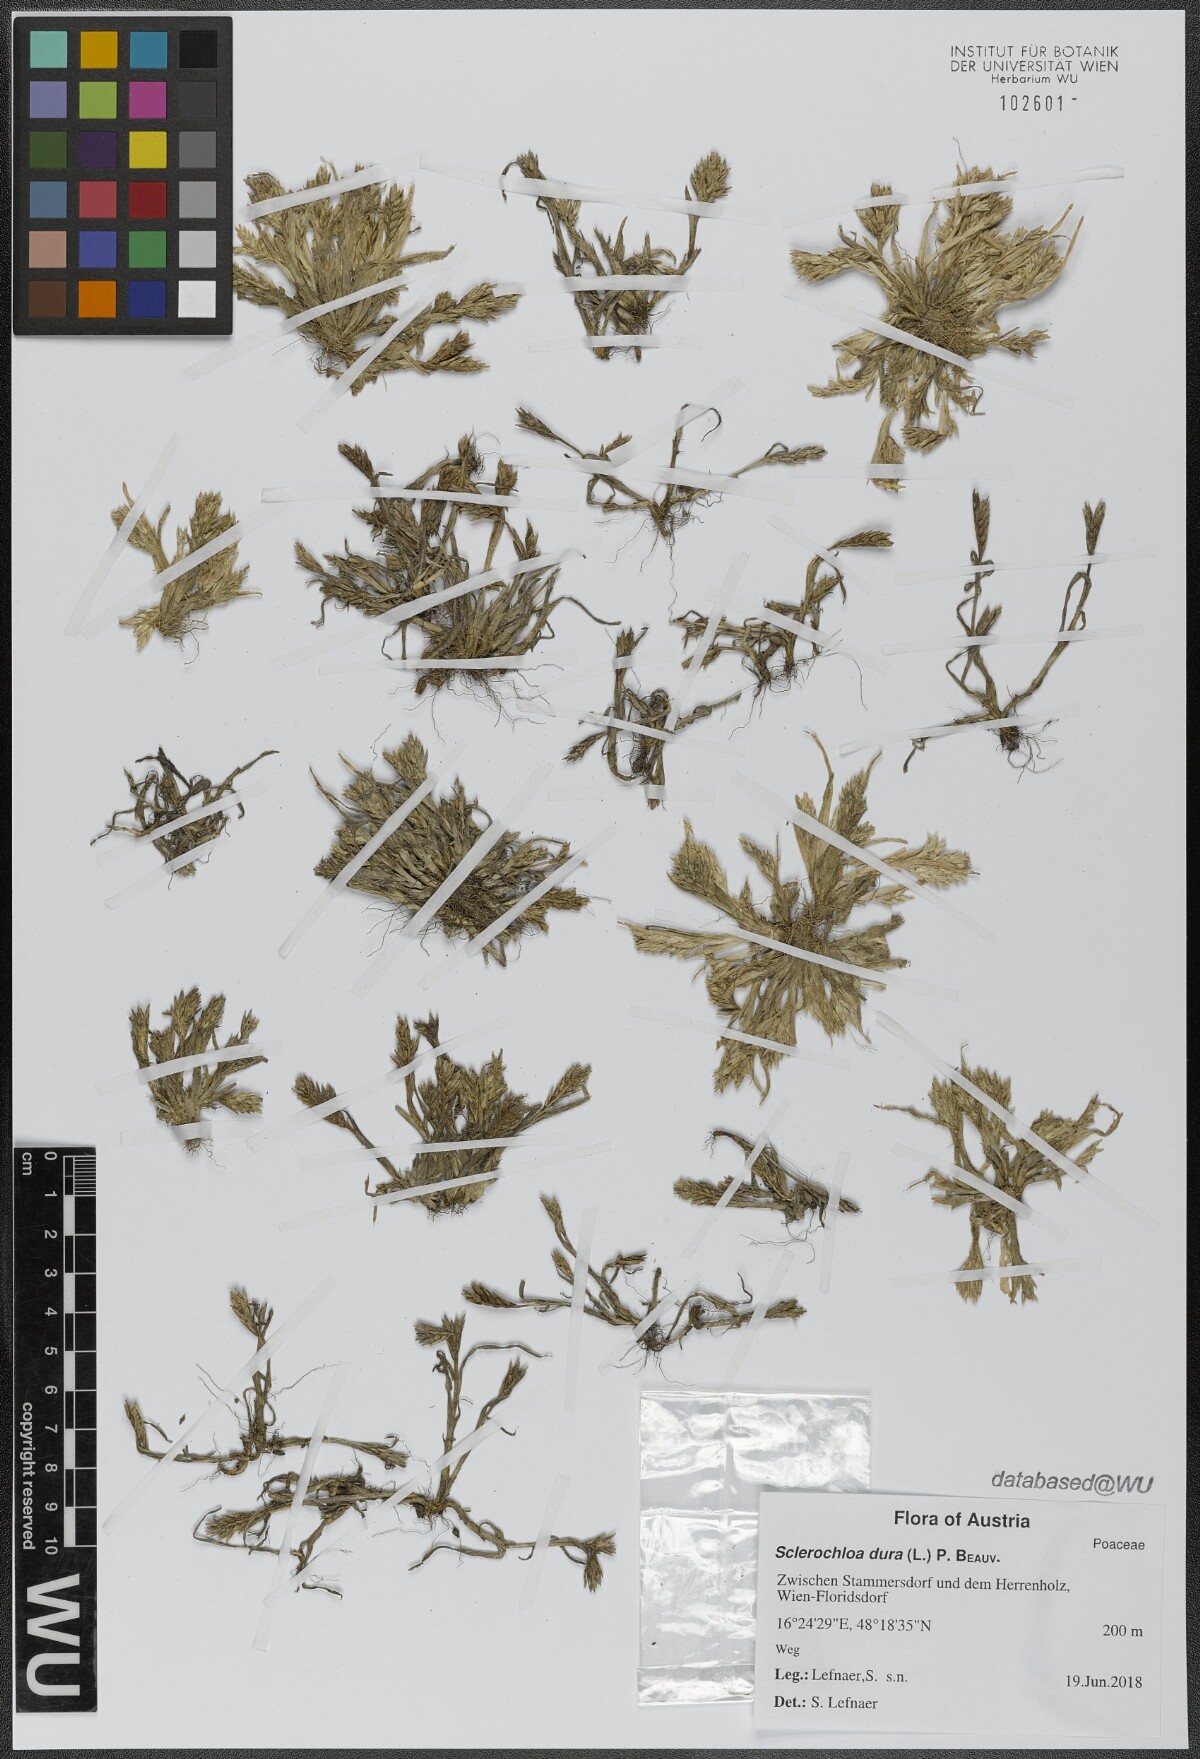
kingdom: Plantae
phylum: Tracheophyta
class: Liliopsida
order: Poales
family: Poaceae
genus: Sclerochloa
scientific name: Sclerochloa dura
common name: Common hardgrass
